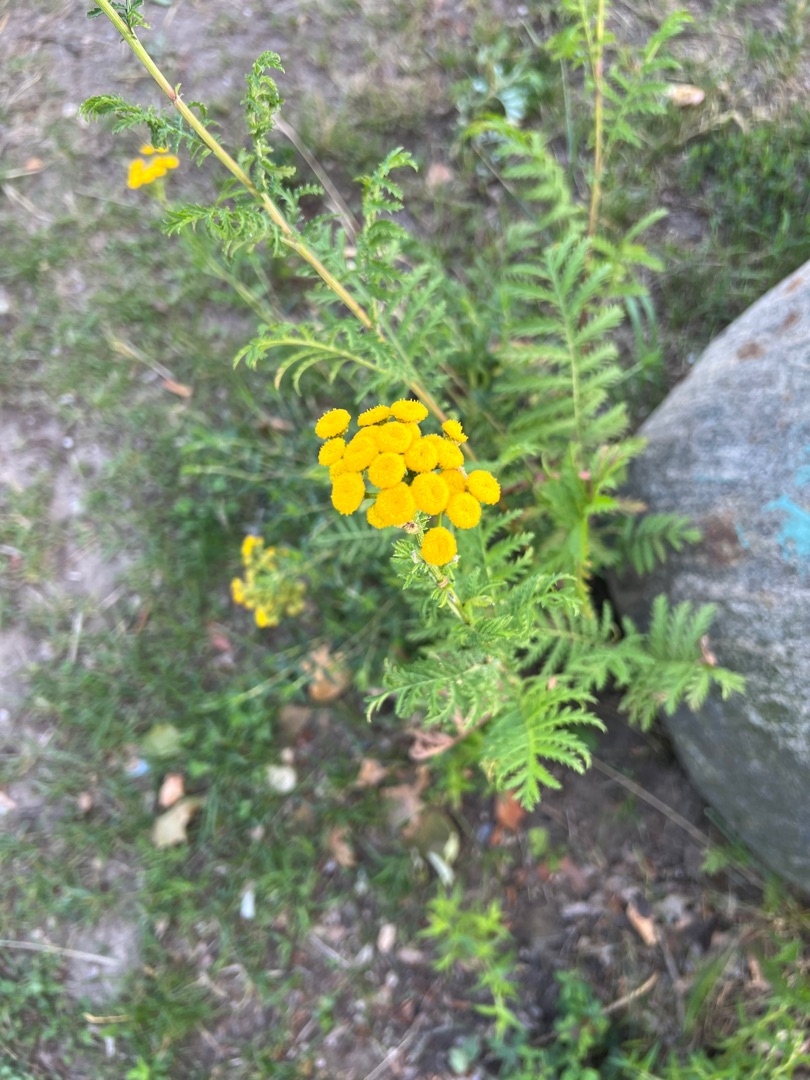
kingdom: Plantae
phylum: Tracheophyta
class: Magnoliopsida
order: Asterales
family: Asteraceae
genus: Tanacetum
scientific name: Tanacetum vulgare
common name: Rejnfan
